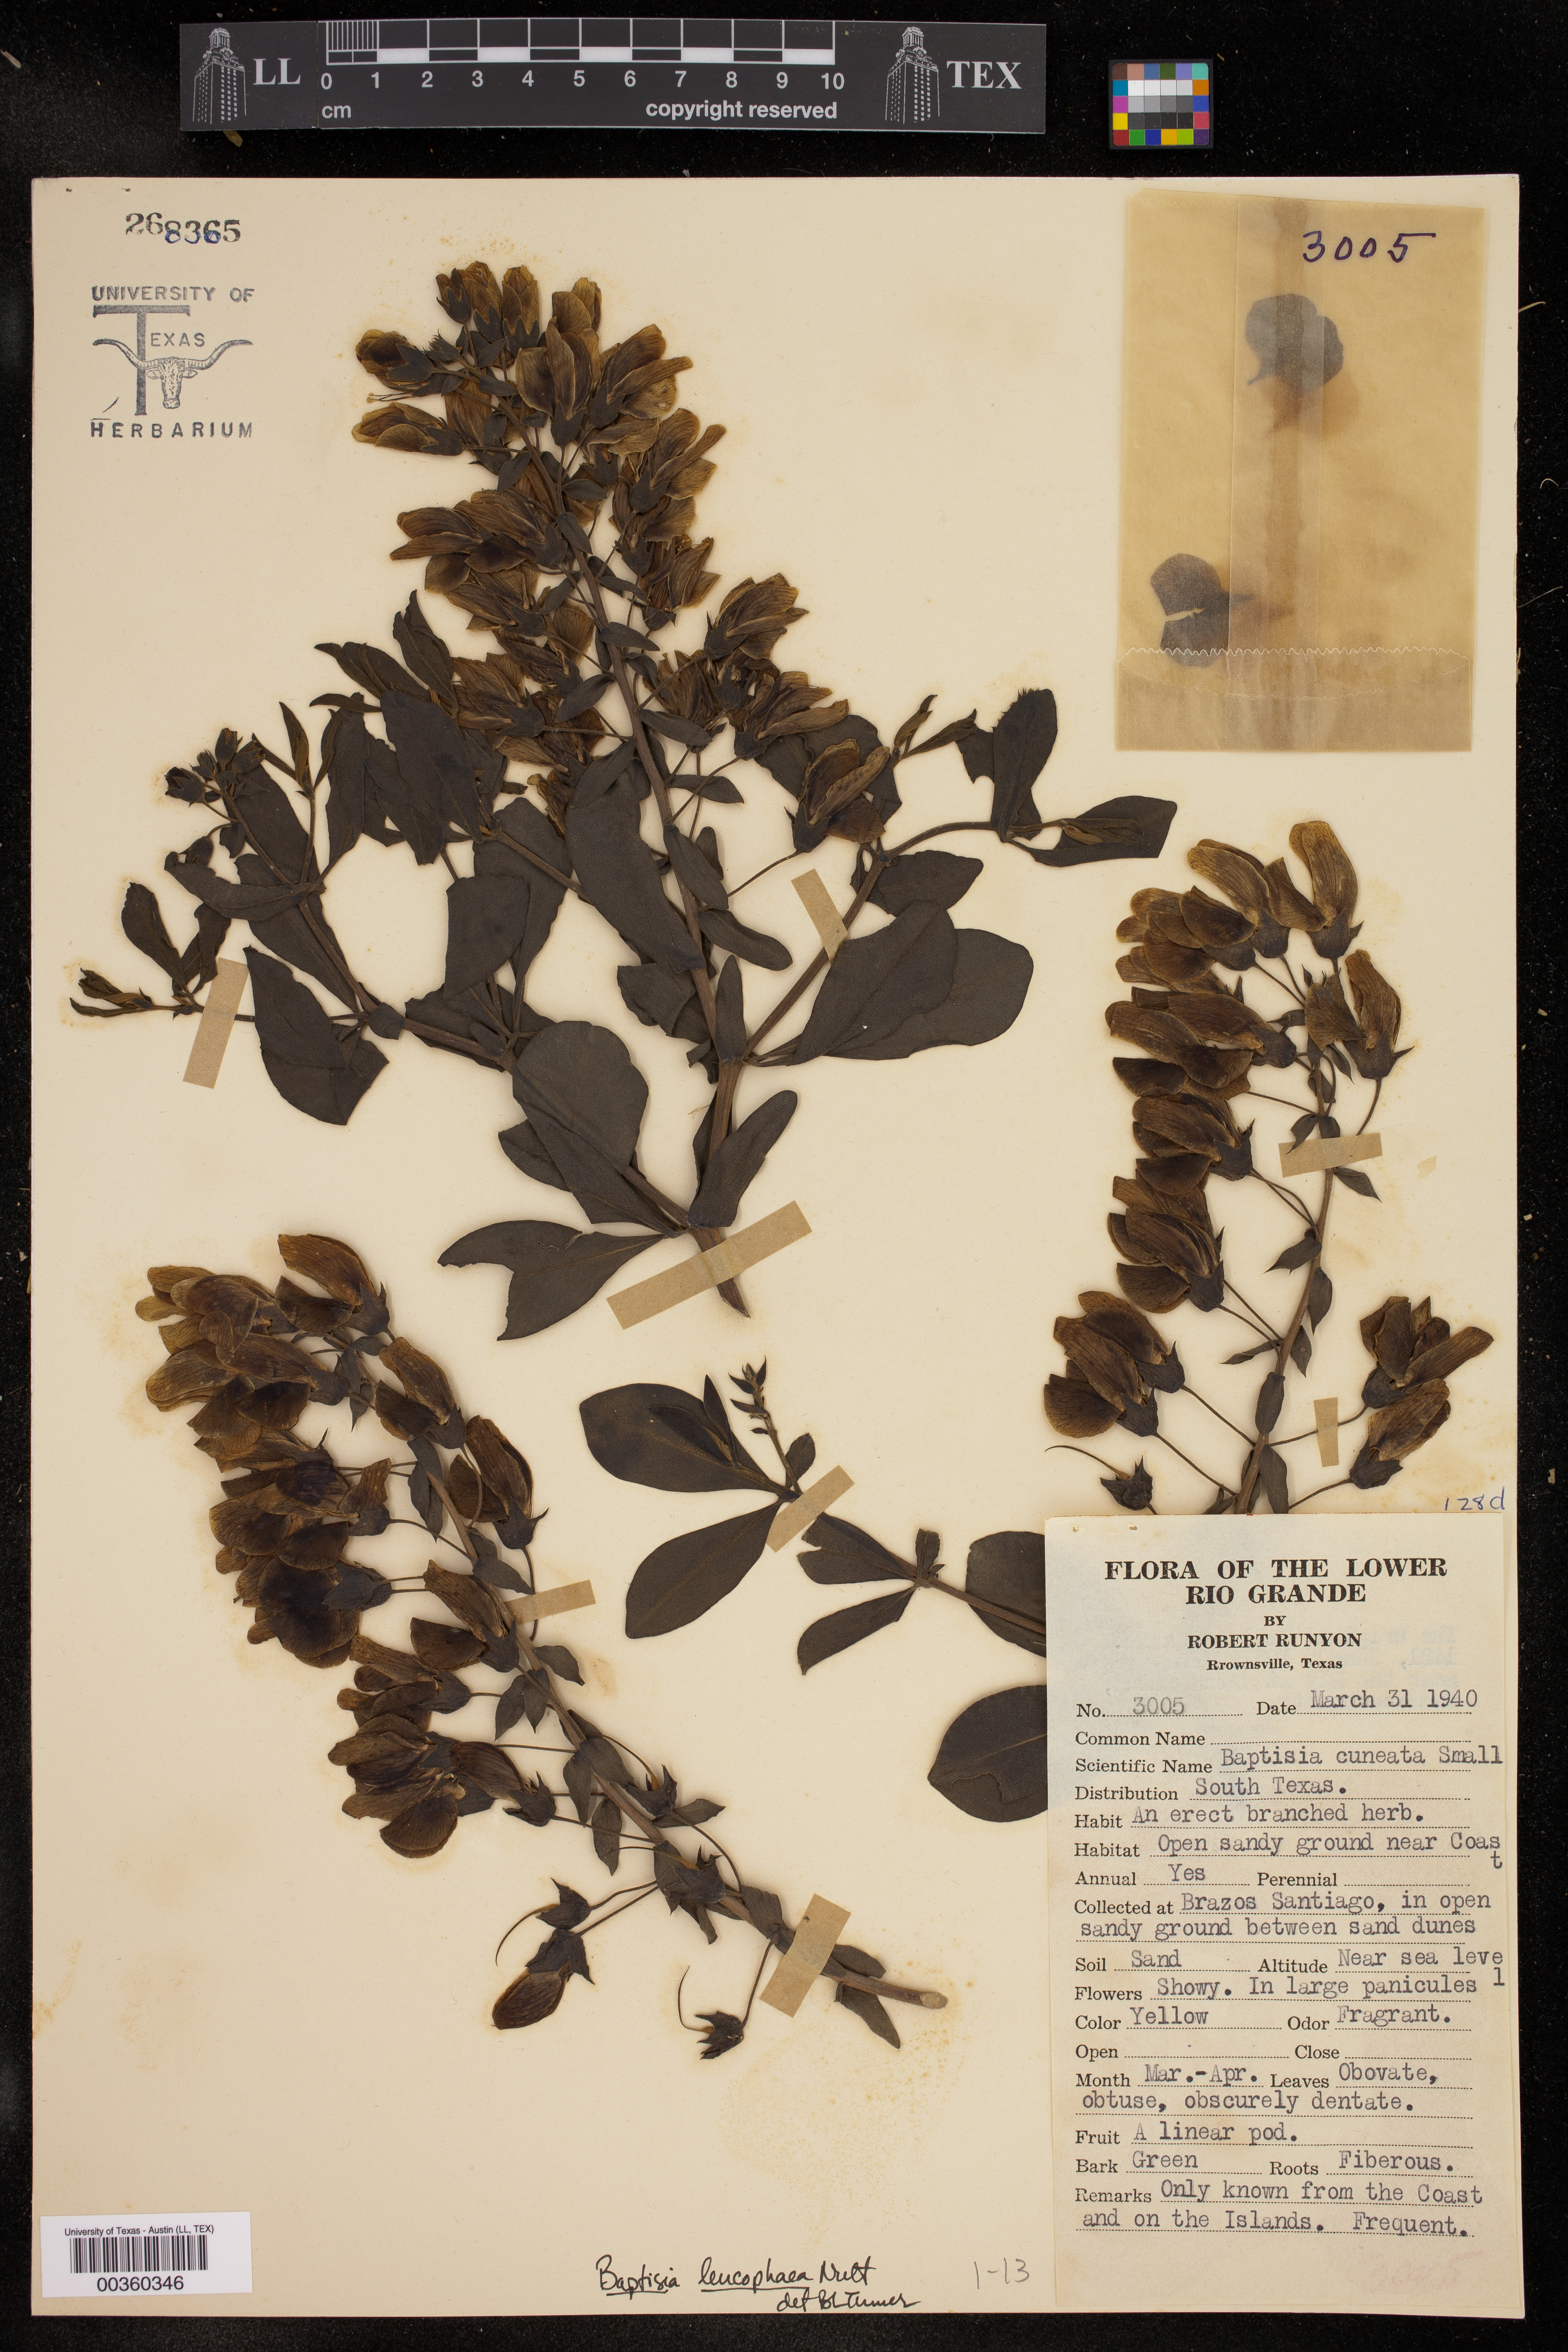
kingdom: Plantae
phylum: Tracheophyta
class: Magnoliopsida
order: Fabales
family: Fabaceae
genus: Baptisia
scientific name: Baptisia bracteata
